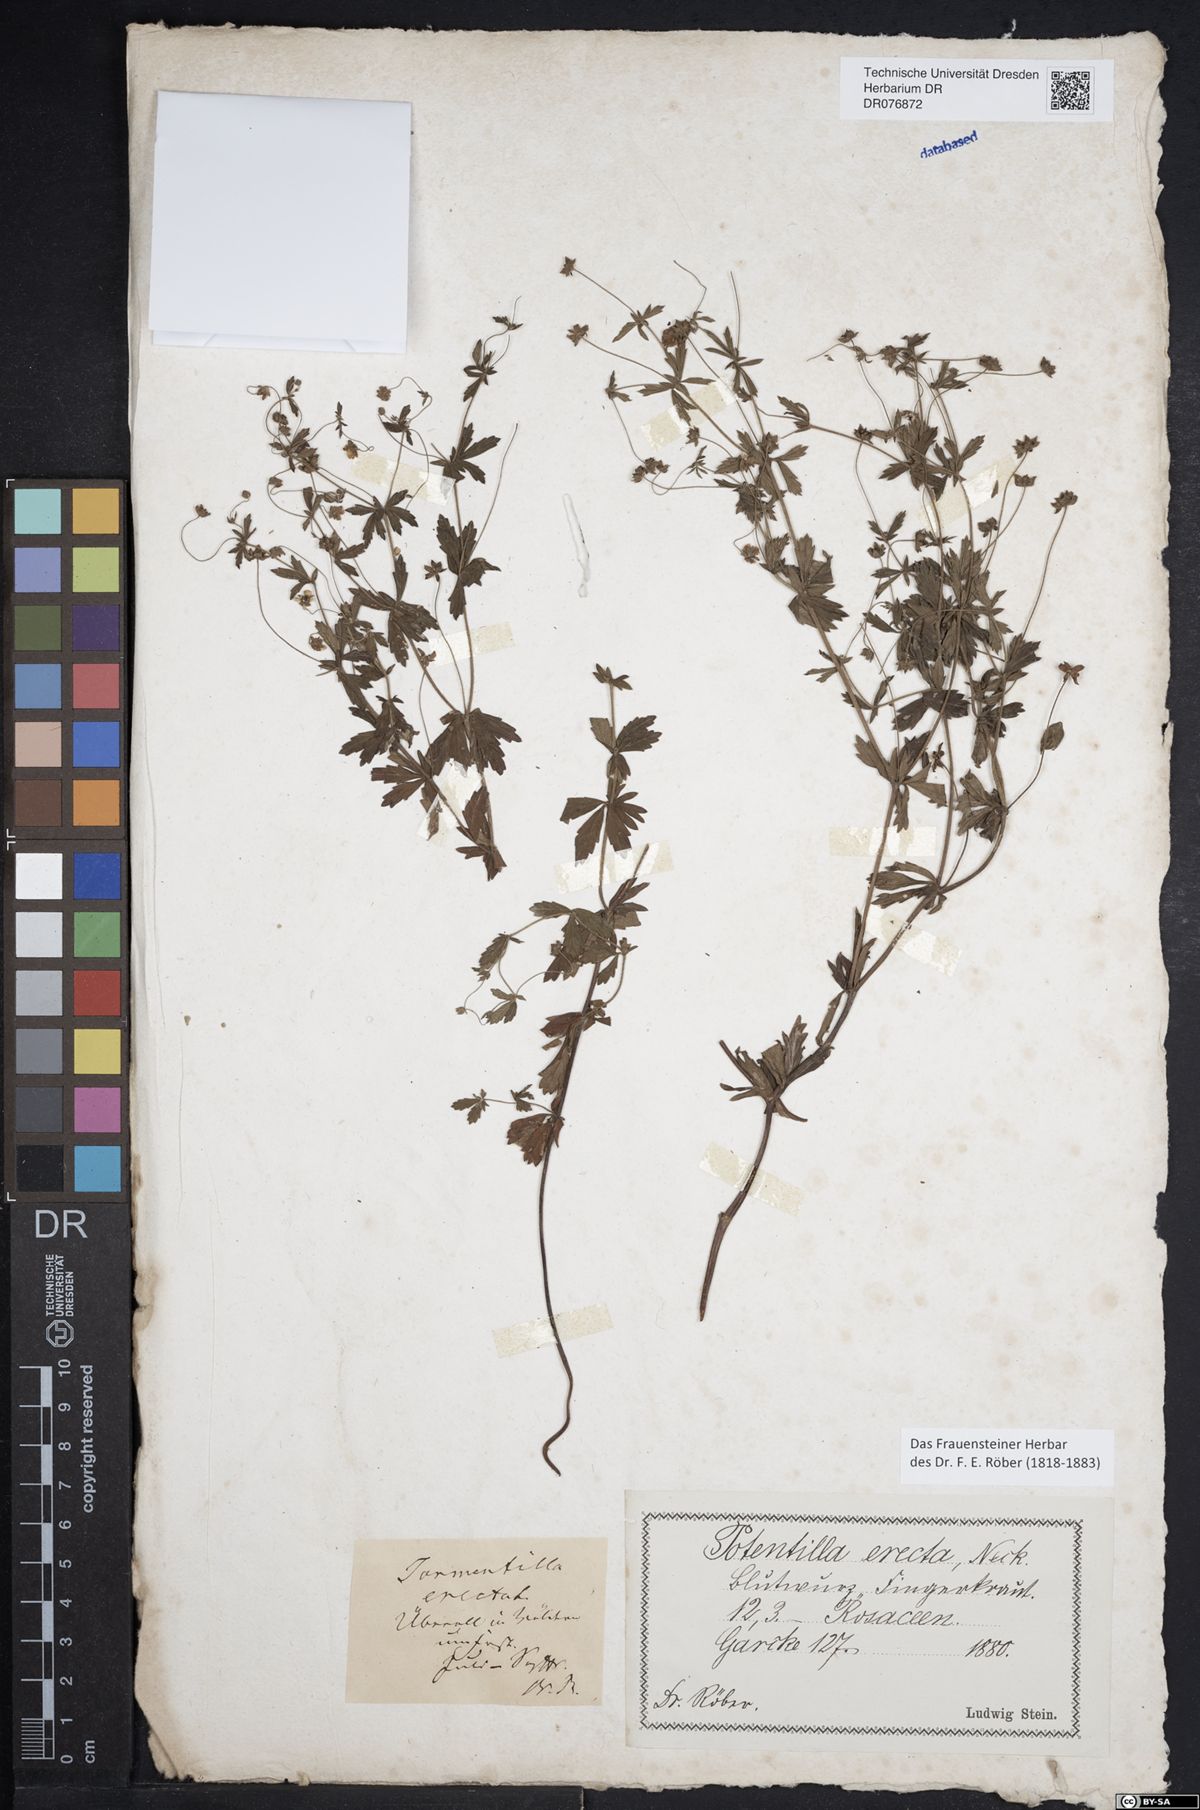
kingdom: Plantae
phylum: Tracheophyta
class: Magnoliopsida
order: Rosales
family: Rosaceae
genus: Potentilla
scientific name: Potentilla erecta
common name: Tormentil
